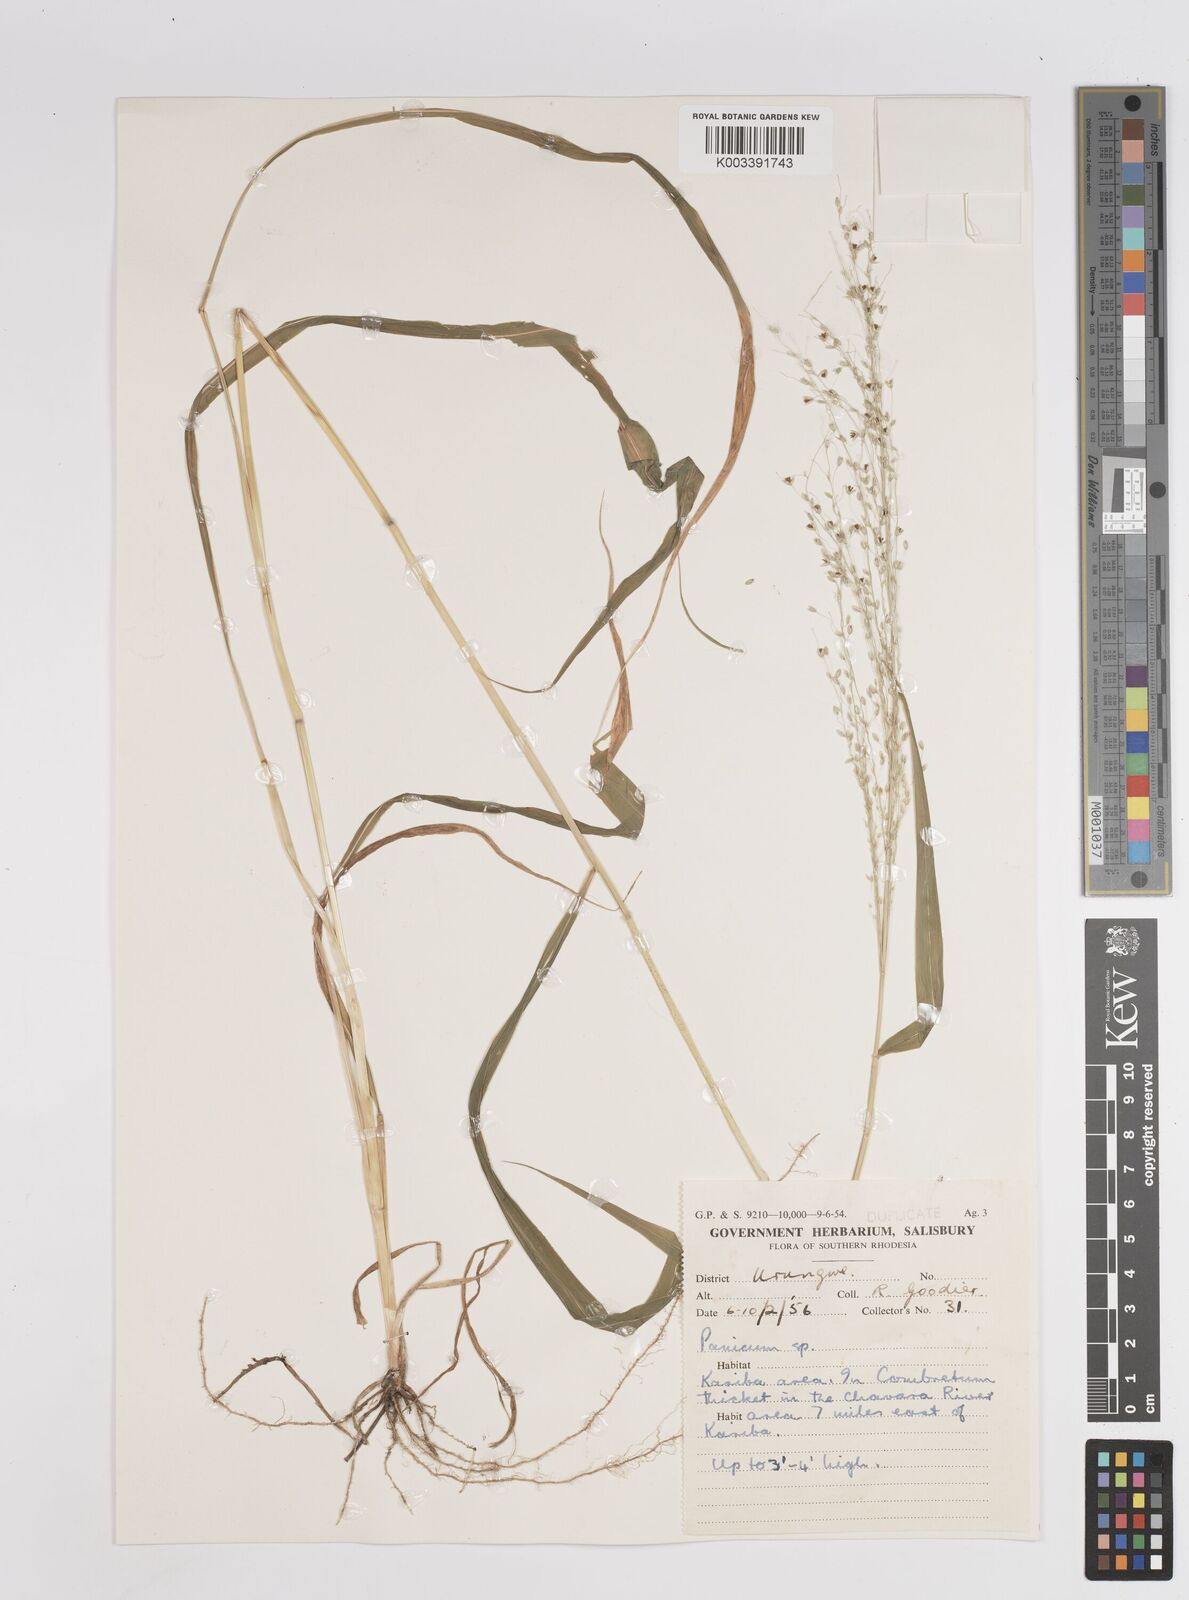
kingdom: Plantae
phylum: Tracheophyta
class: Liliopsida
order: Poales
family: Poaceae
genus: Megathyrsus
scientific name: Megathyrsus maximus
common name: Guineagrass
